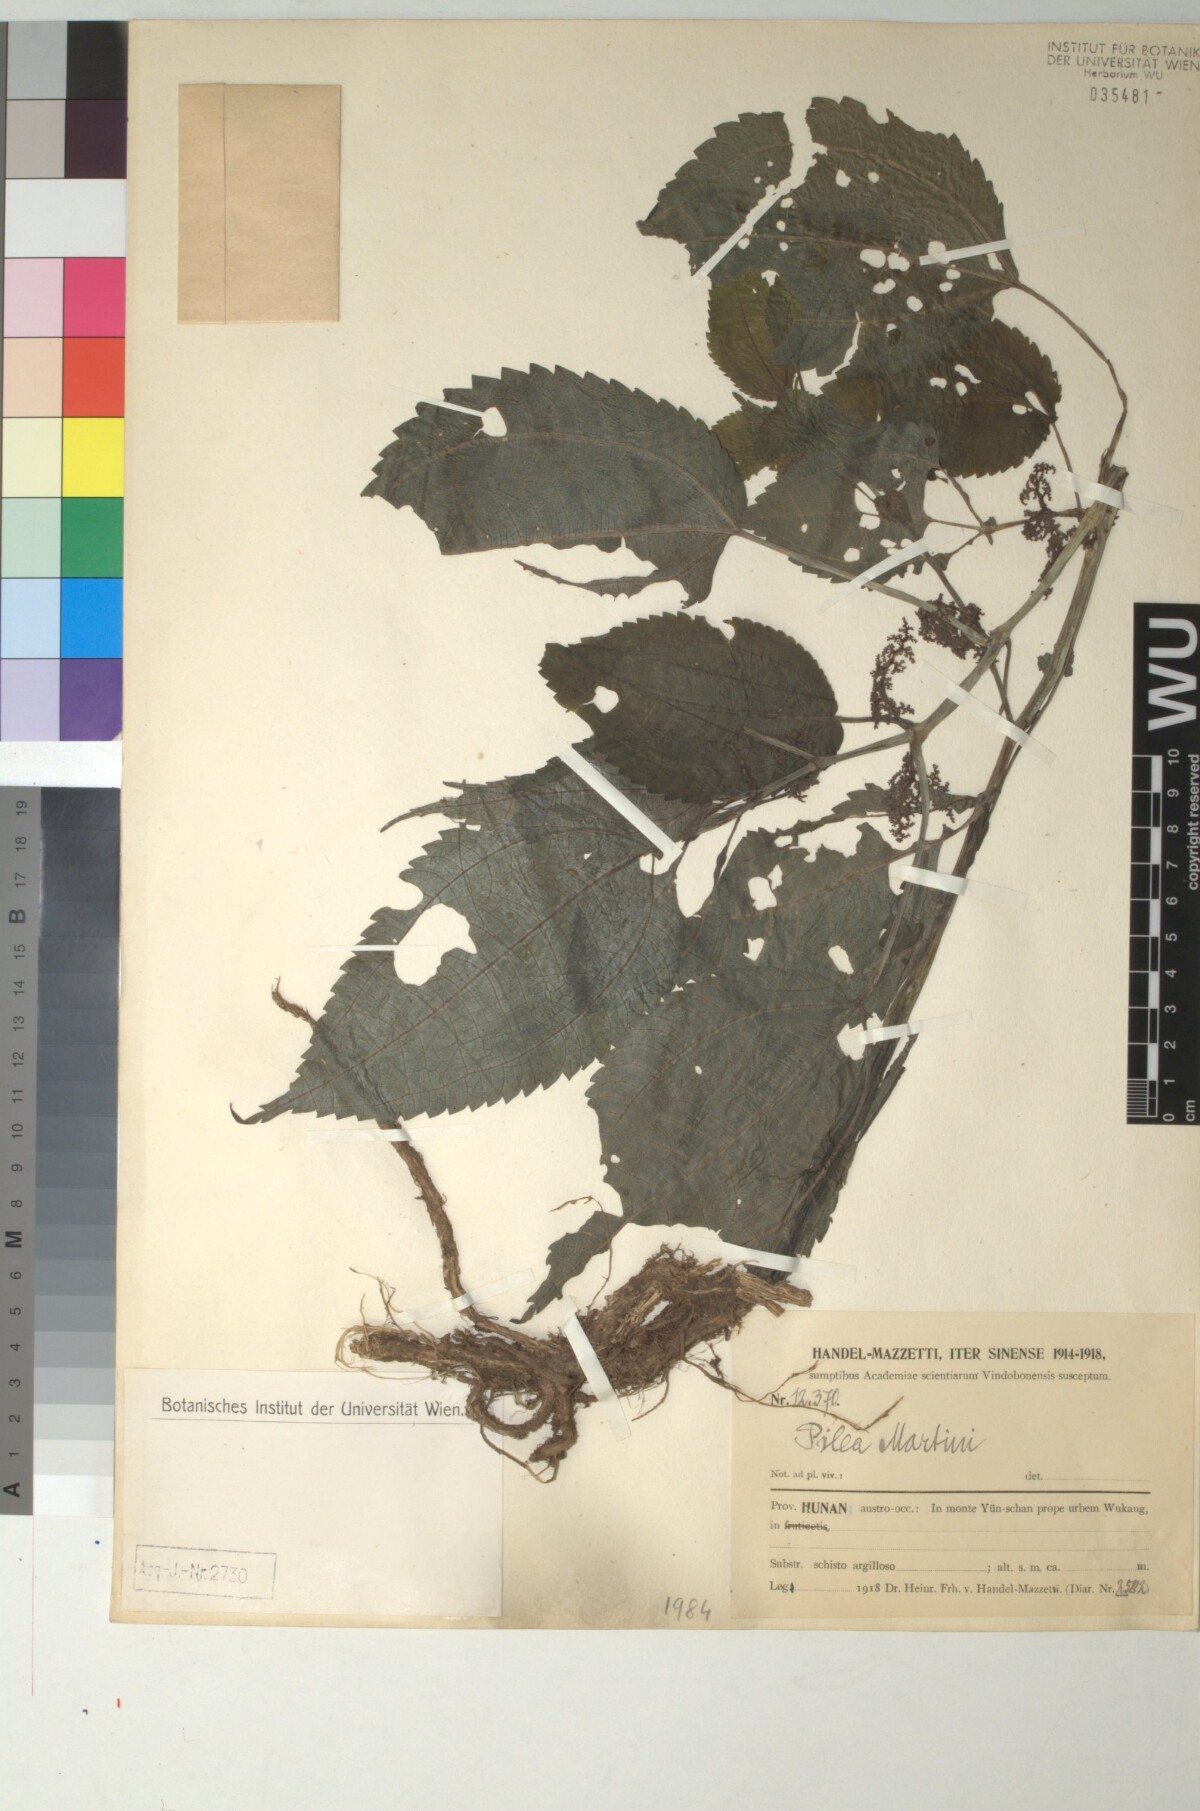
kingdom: Plantae
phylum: Tracheophyta
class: Magnoliopsida
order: Rosales
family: Urticaceae
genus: Pilea
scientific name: Pilea martini
